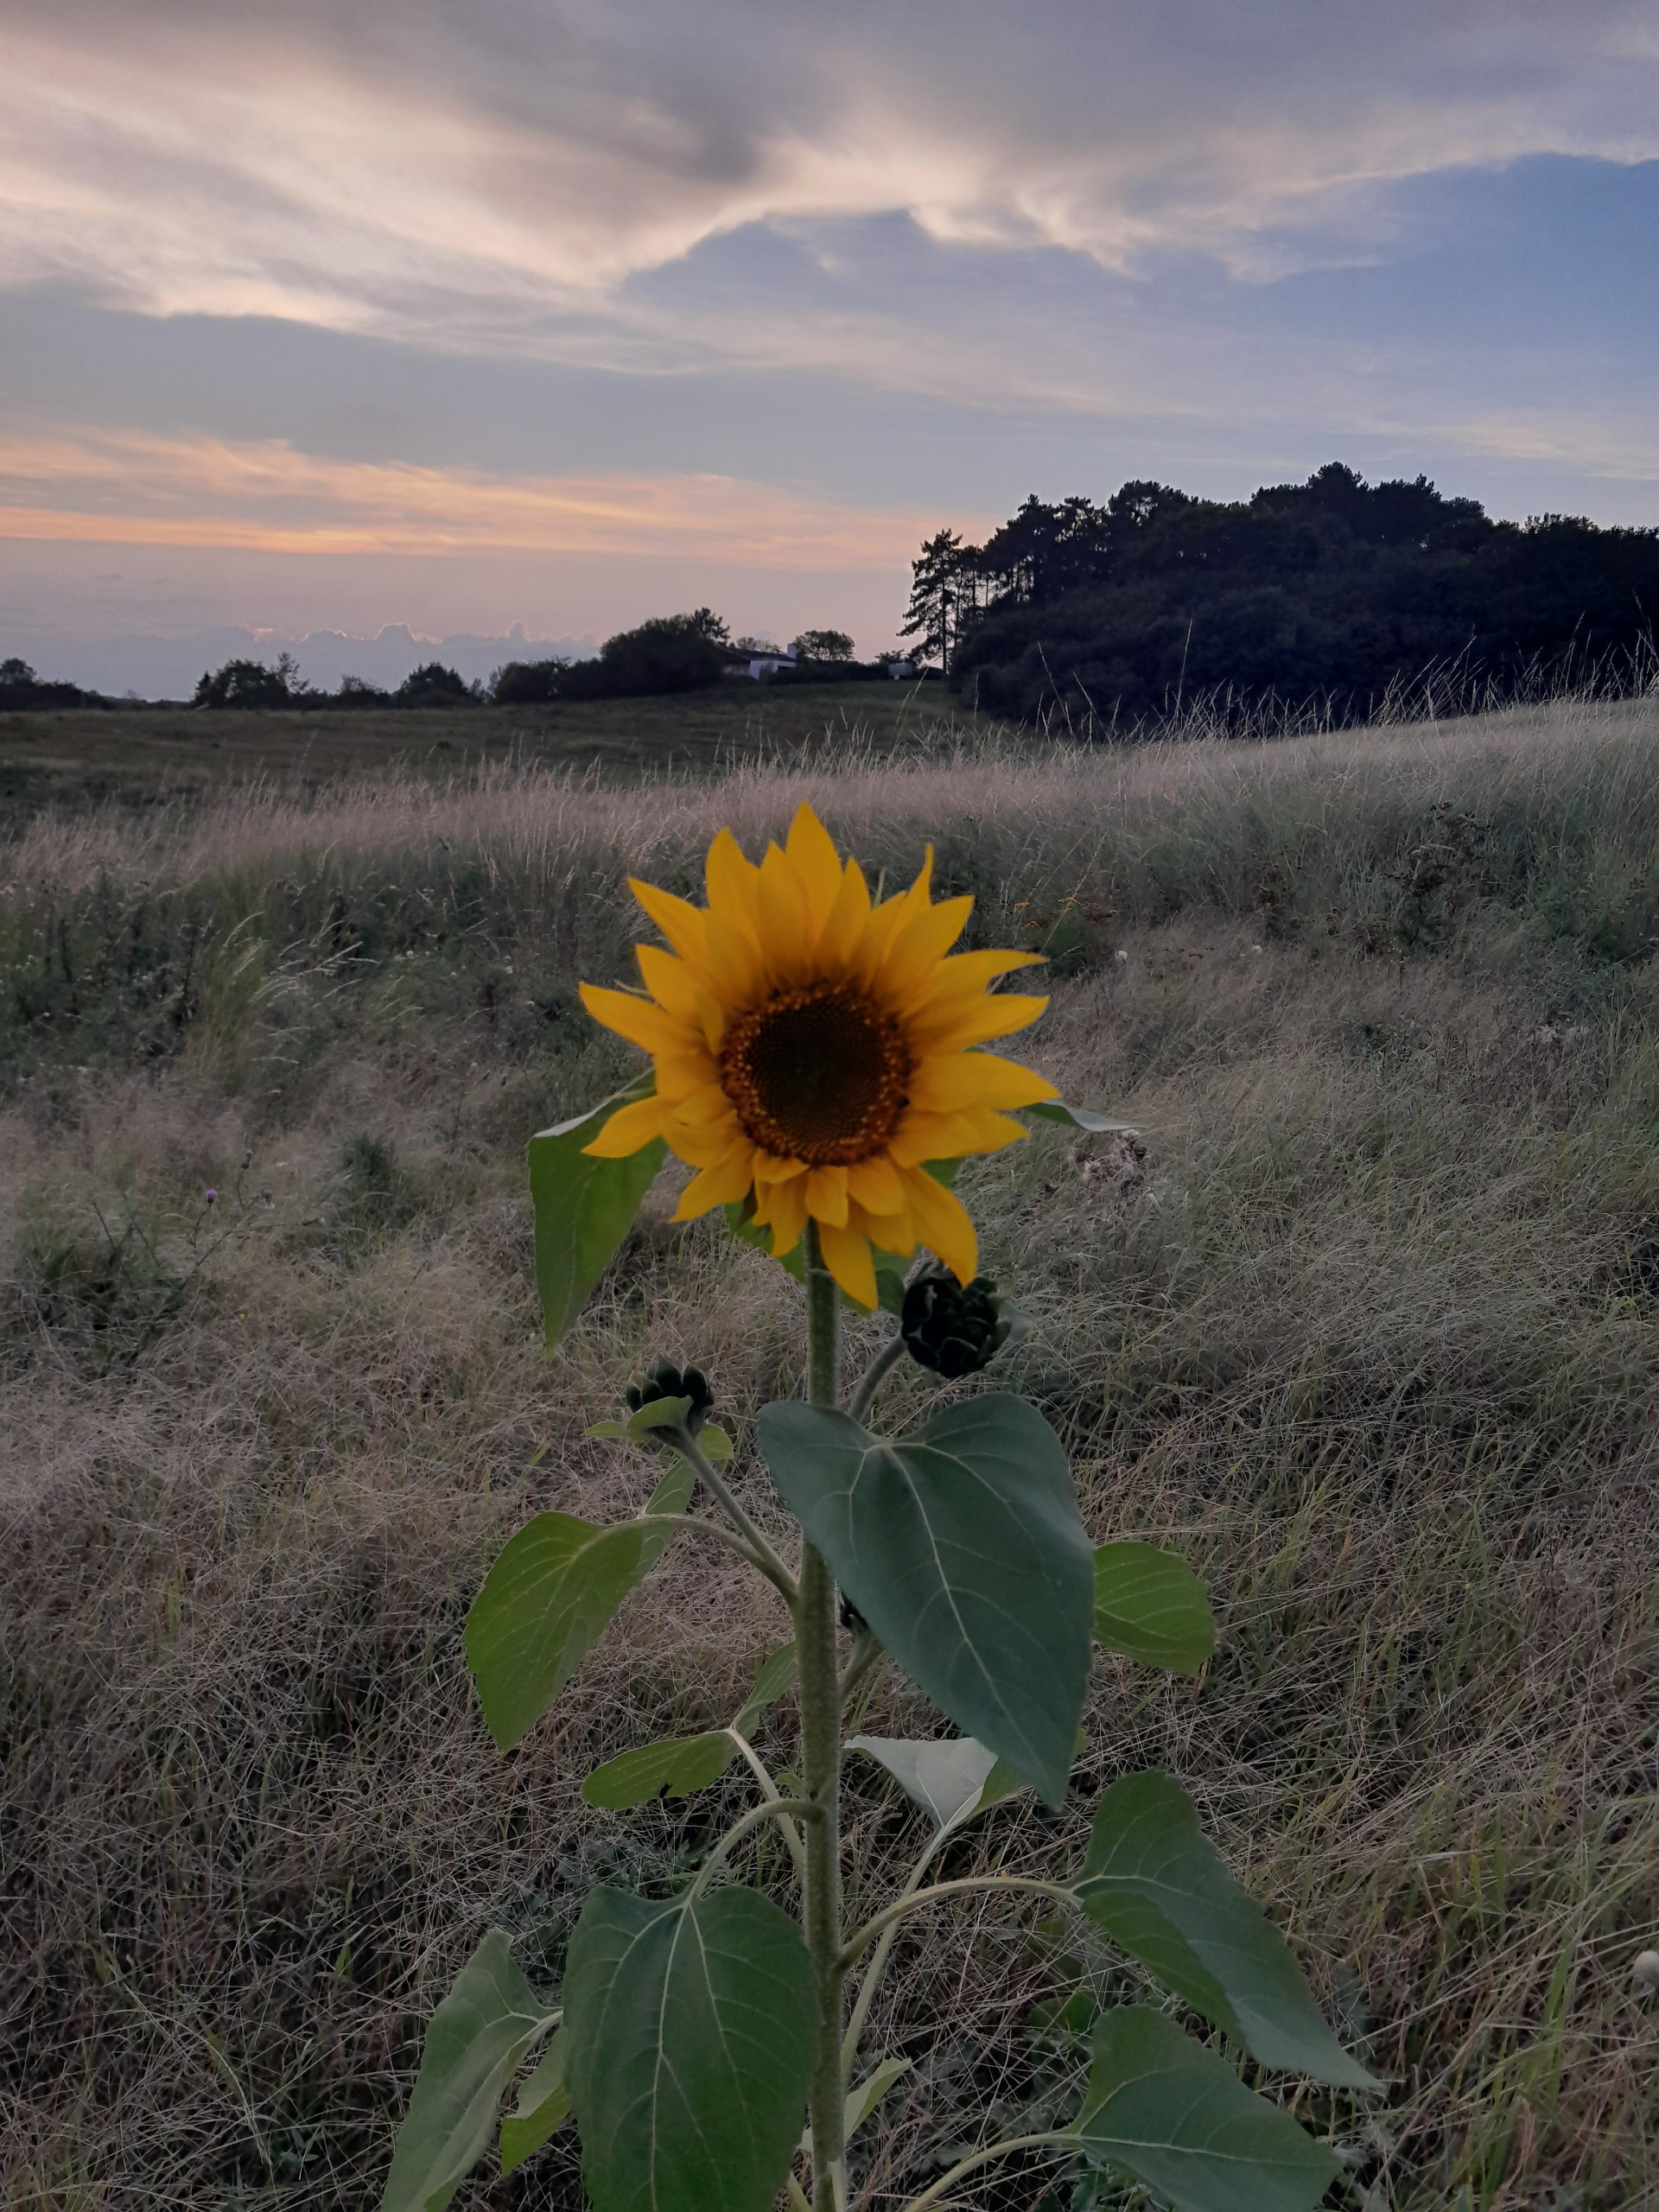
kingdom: Plantae
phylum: Tracheophyta
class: Magnoliopsida
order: Asterales
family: Asteraceae
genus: Helianthus
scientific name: Helianthus annuus
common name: Solsikke
